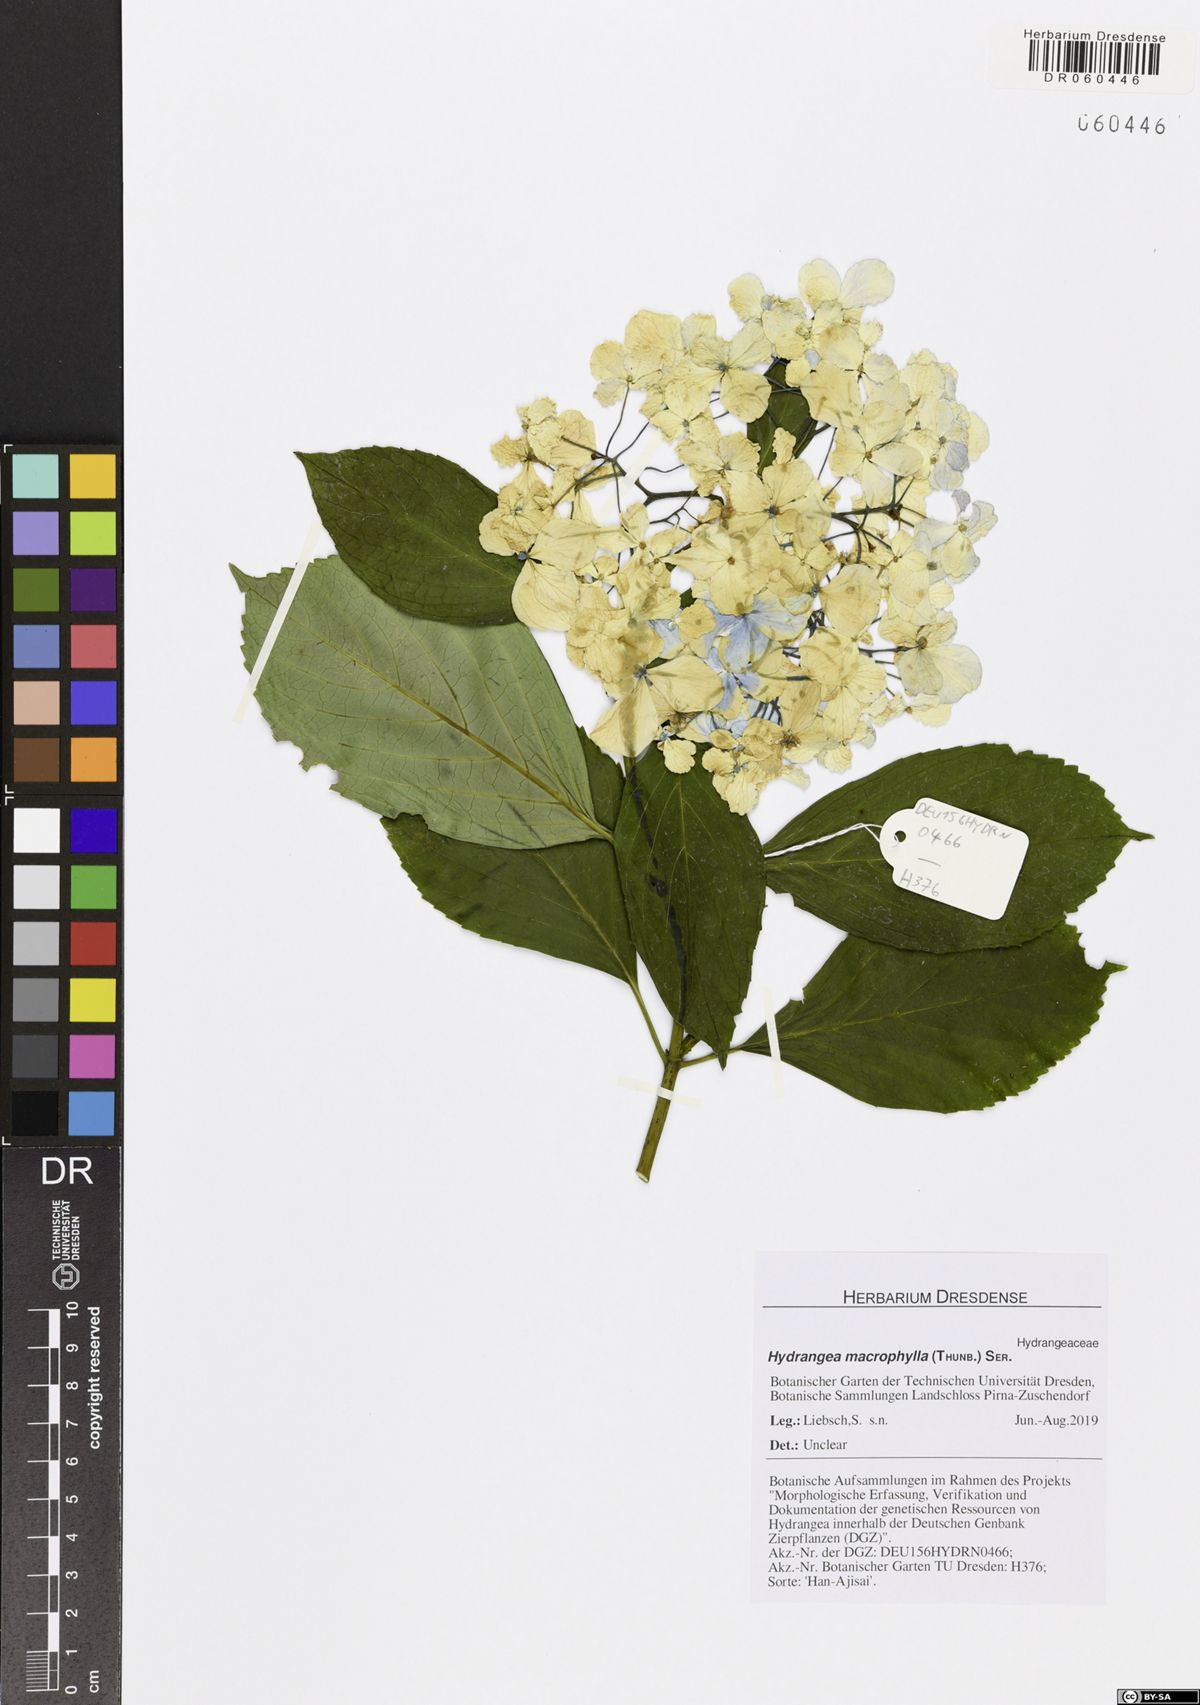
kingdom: Plantae
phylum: Tracheophyta
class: Magnoliopsida
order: Cornales
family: Hydrangeaceae
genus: Hydrangea
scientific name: Hydrangea macrophylla
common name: Hydrangea
